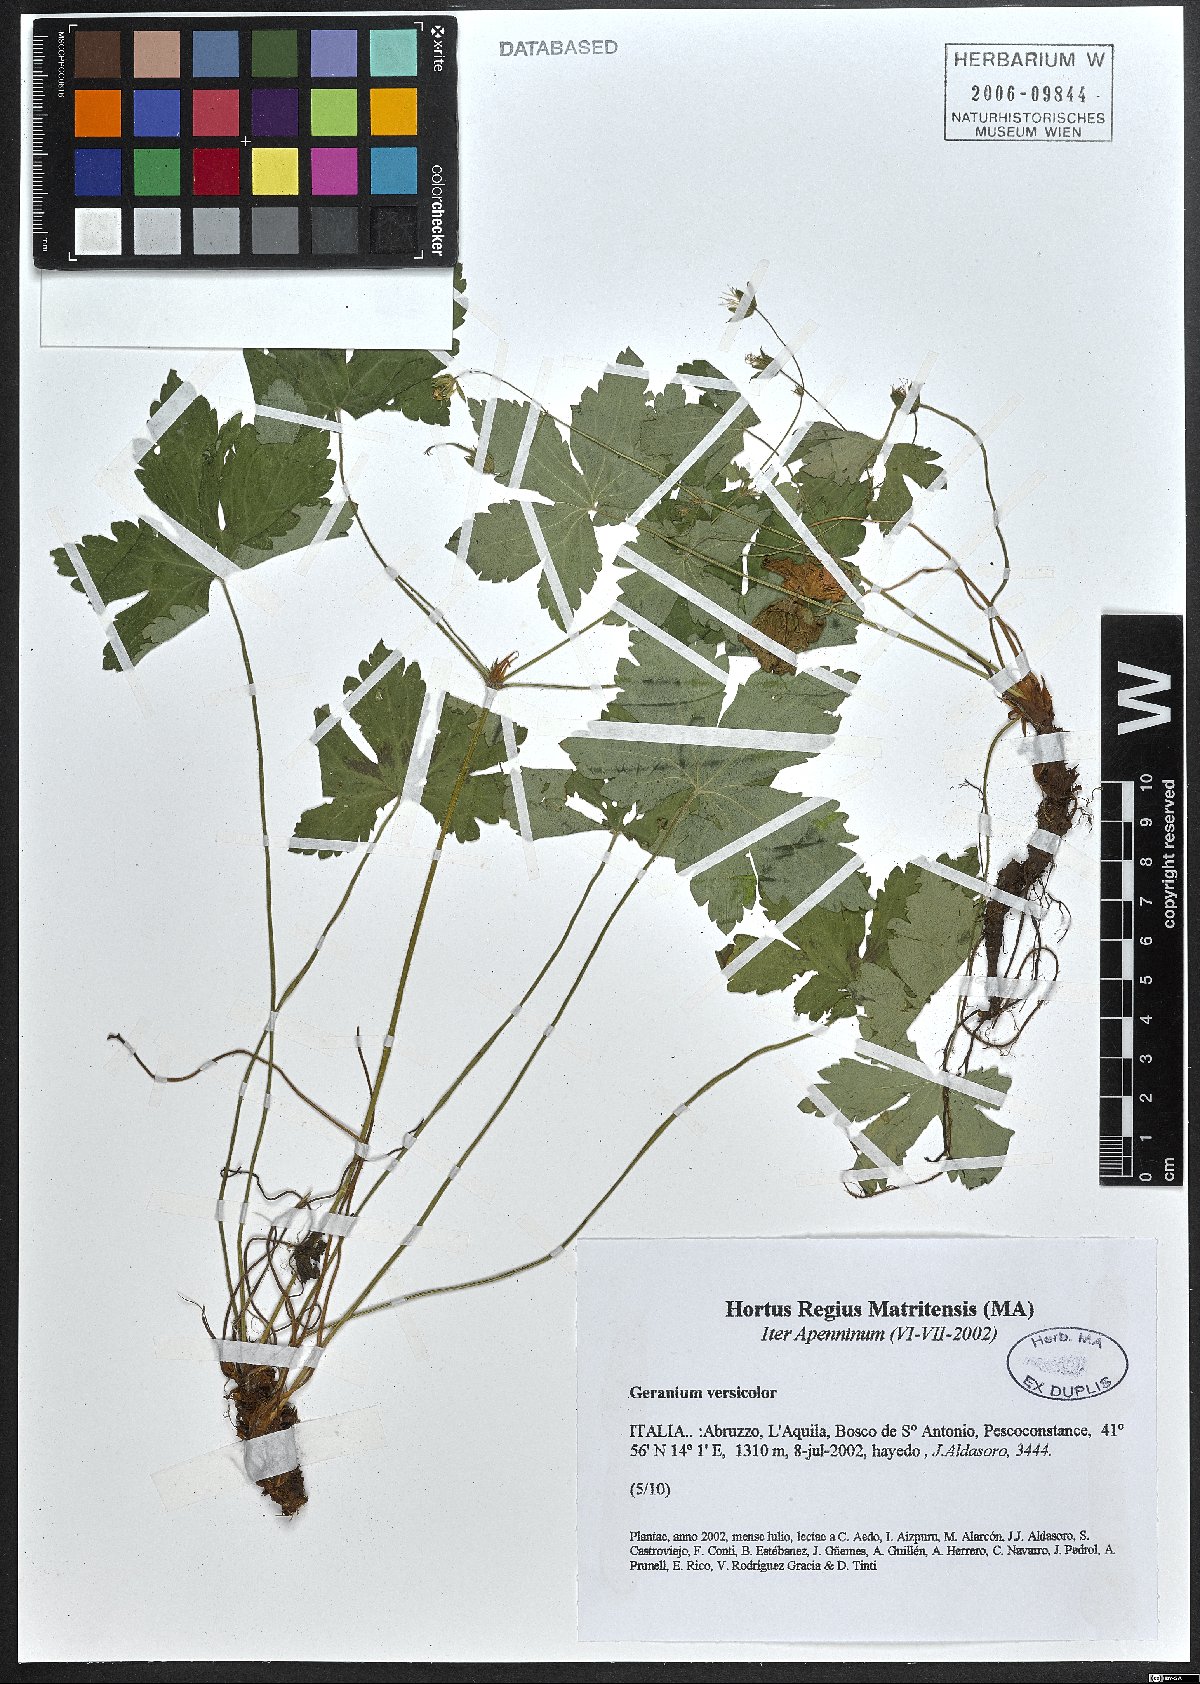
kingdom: Plantae
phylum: Tracheophyta
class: Magnoliopsida
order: Geraniales
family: Geraniaceae
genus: Geranium
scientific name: Geranium versicolor
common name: Pencilled crane's-bill
